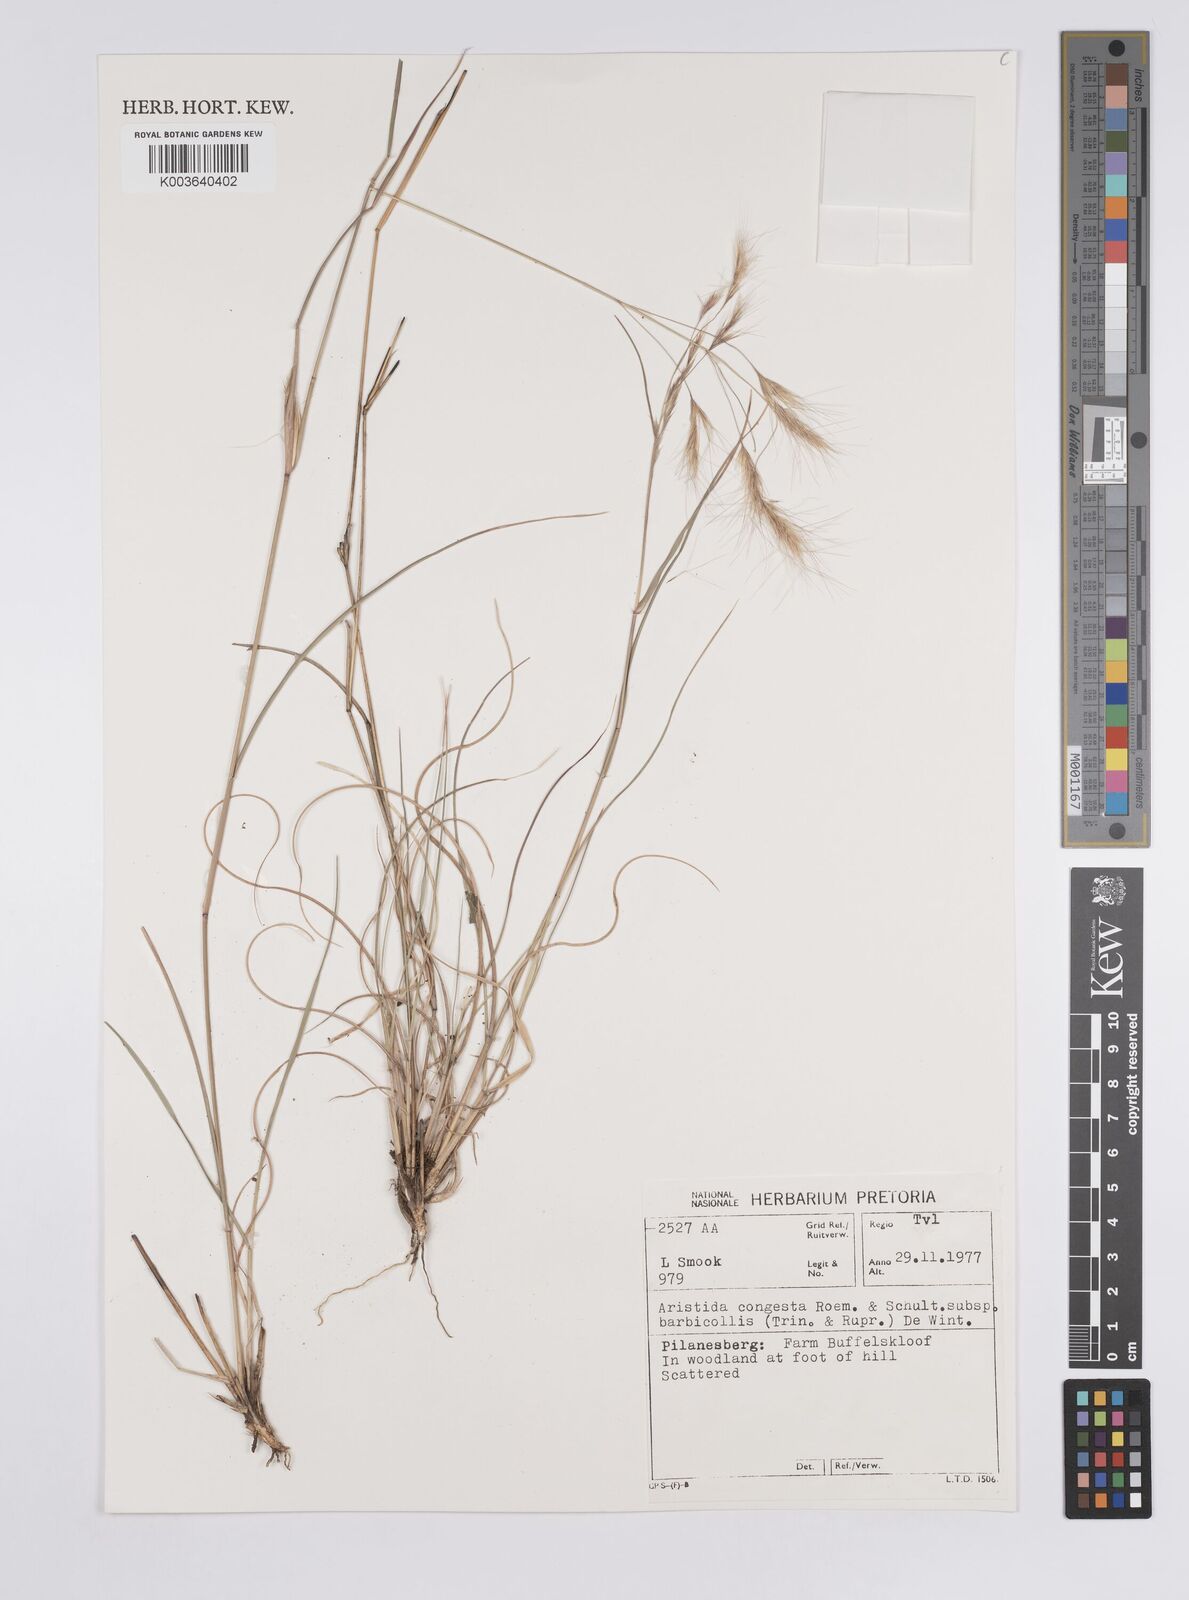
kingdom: Plantae
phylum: Tracheophyta
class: Liliopsida
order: Poales
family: Poaceae
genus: Aristida
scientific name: Aristida barbicollis
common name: Spreading prickle grass
